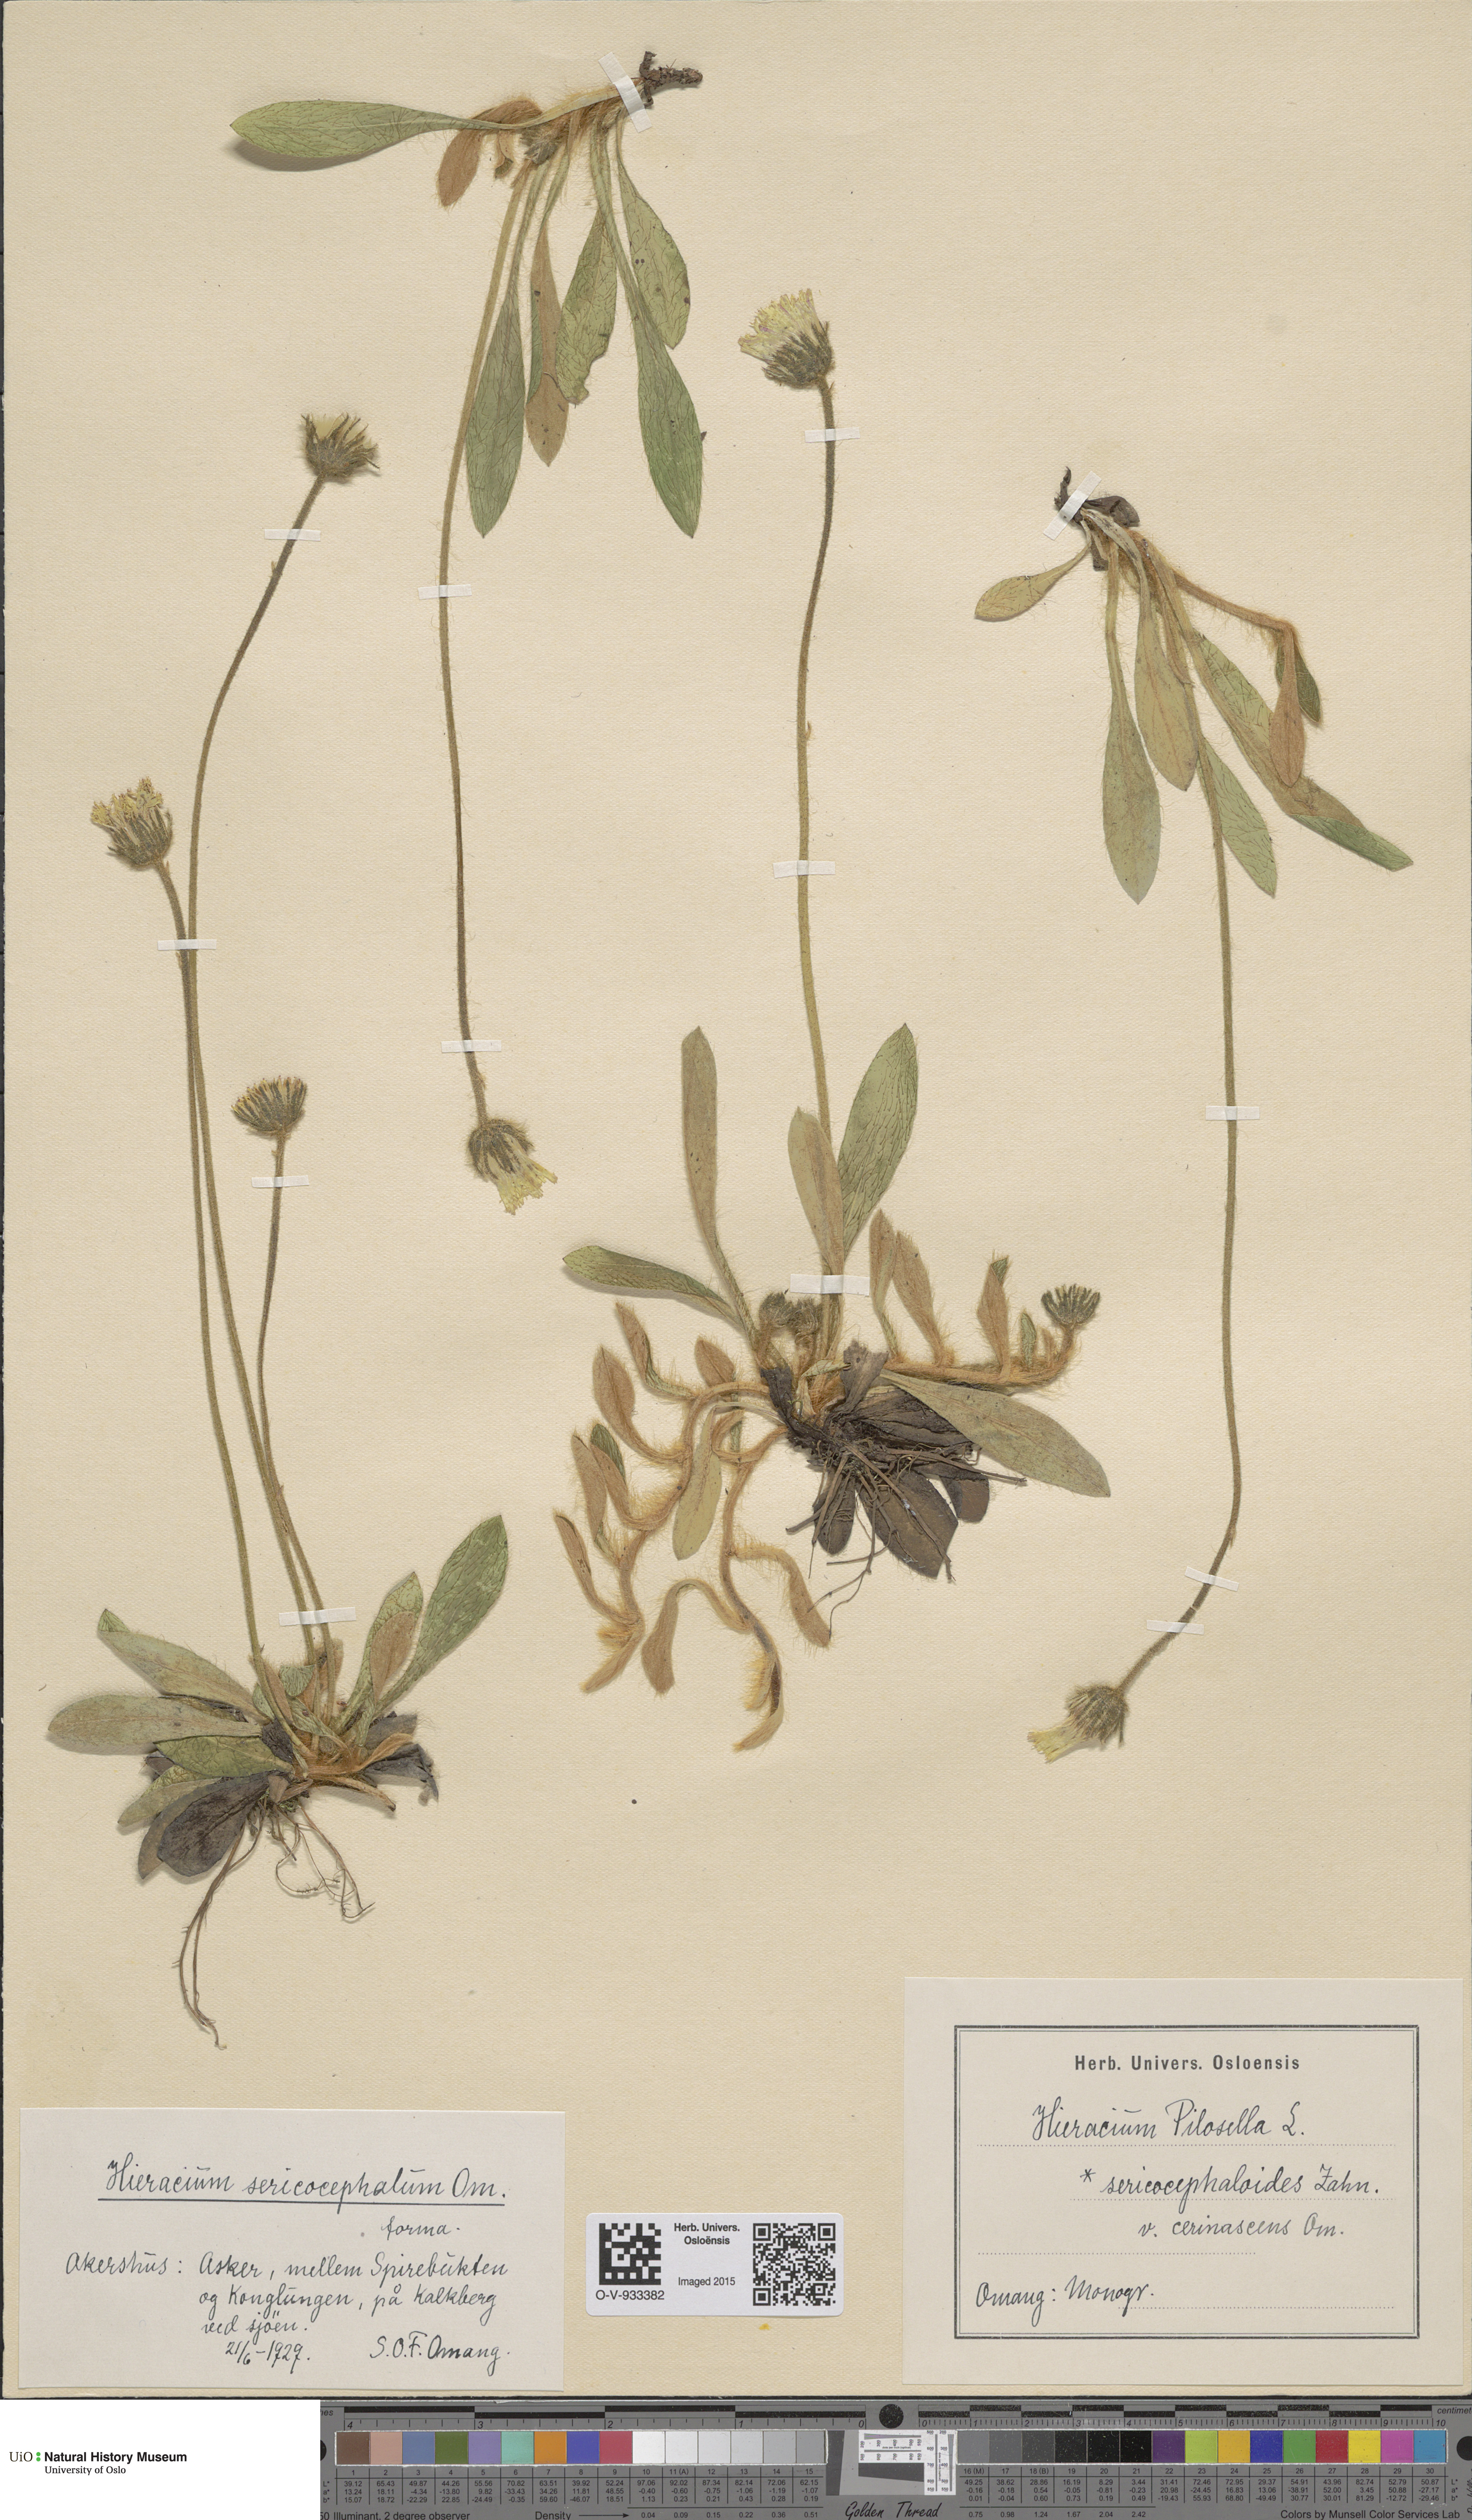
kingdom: Plantae
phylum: Tracheophyta
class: Magnoliopsida
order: Asterales
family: Asteraceae
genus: Pilosella
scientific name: Pilosella officinarum
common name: Mouse-ear hawkweed
